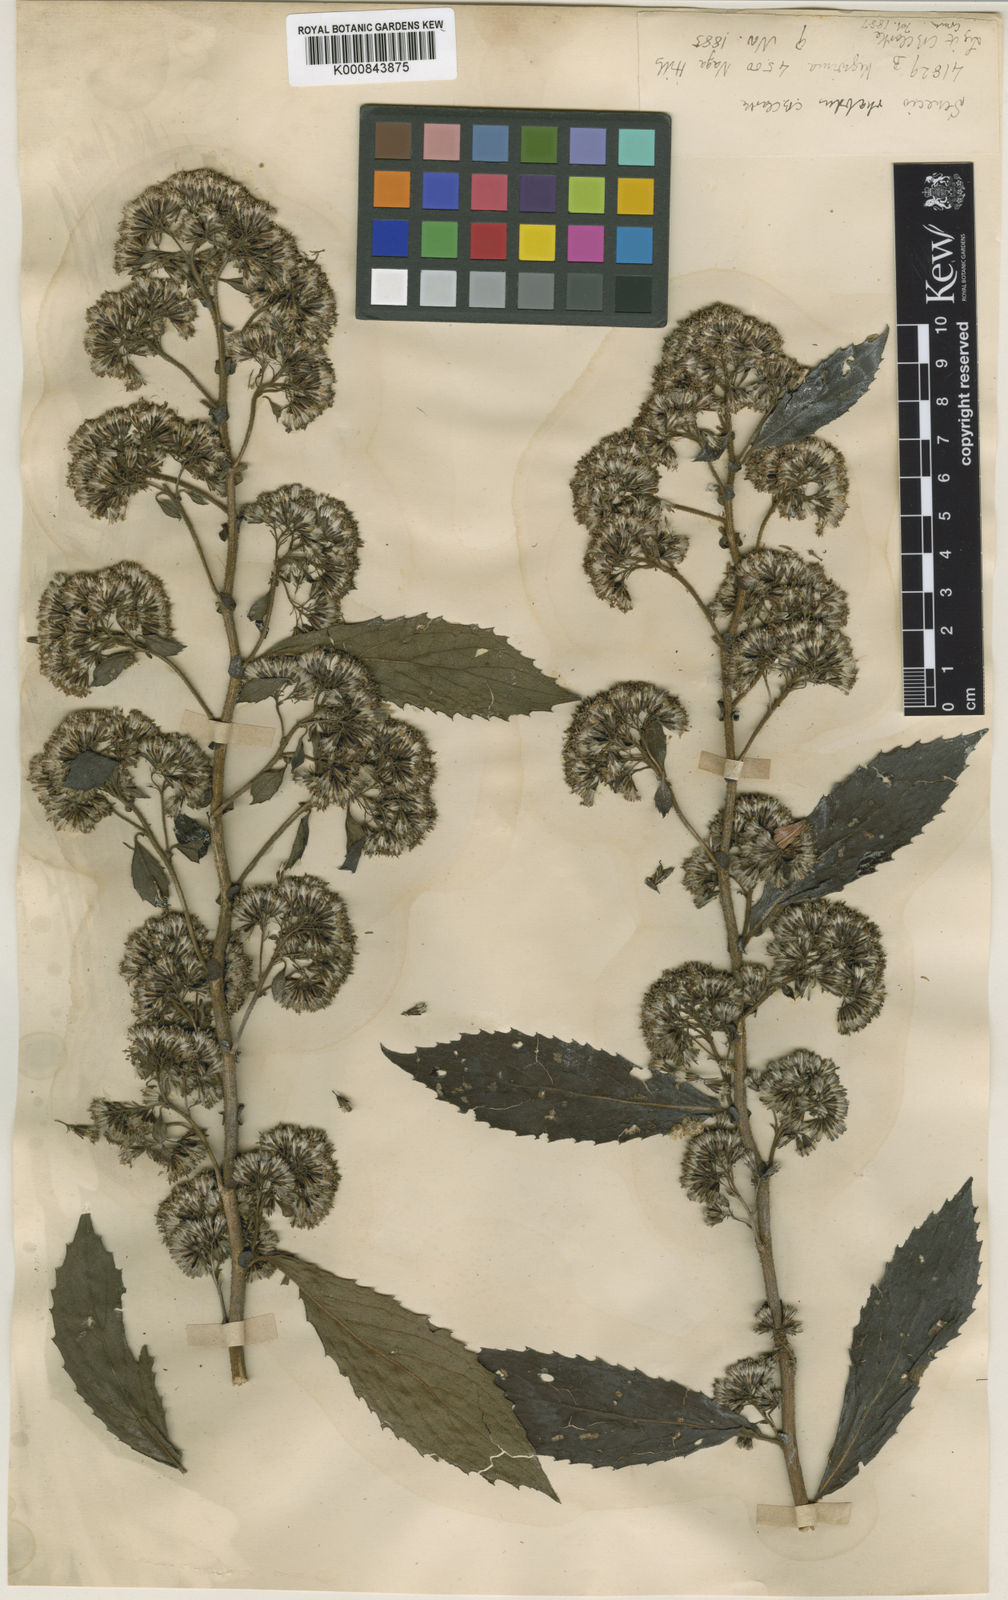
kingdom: Plantae
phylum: Tracheophyta
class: Magnoliopsida
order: Asterales
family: Asteraceae
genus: Synotis
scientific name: Synotis rufinervis
